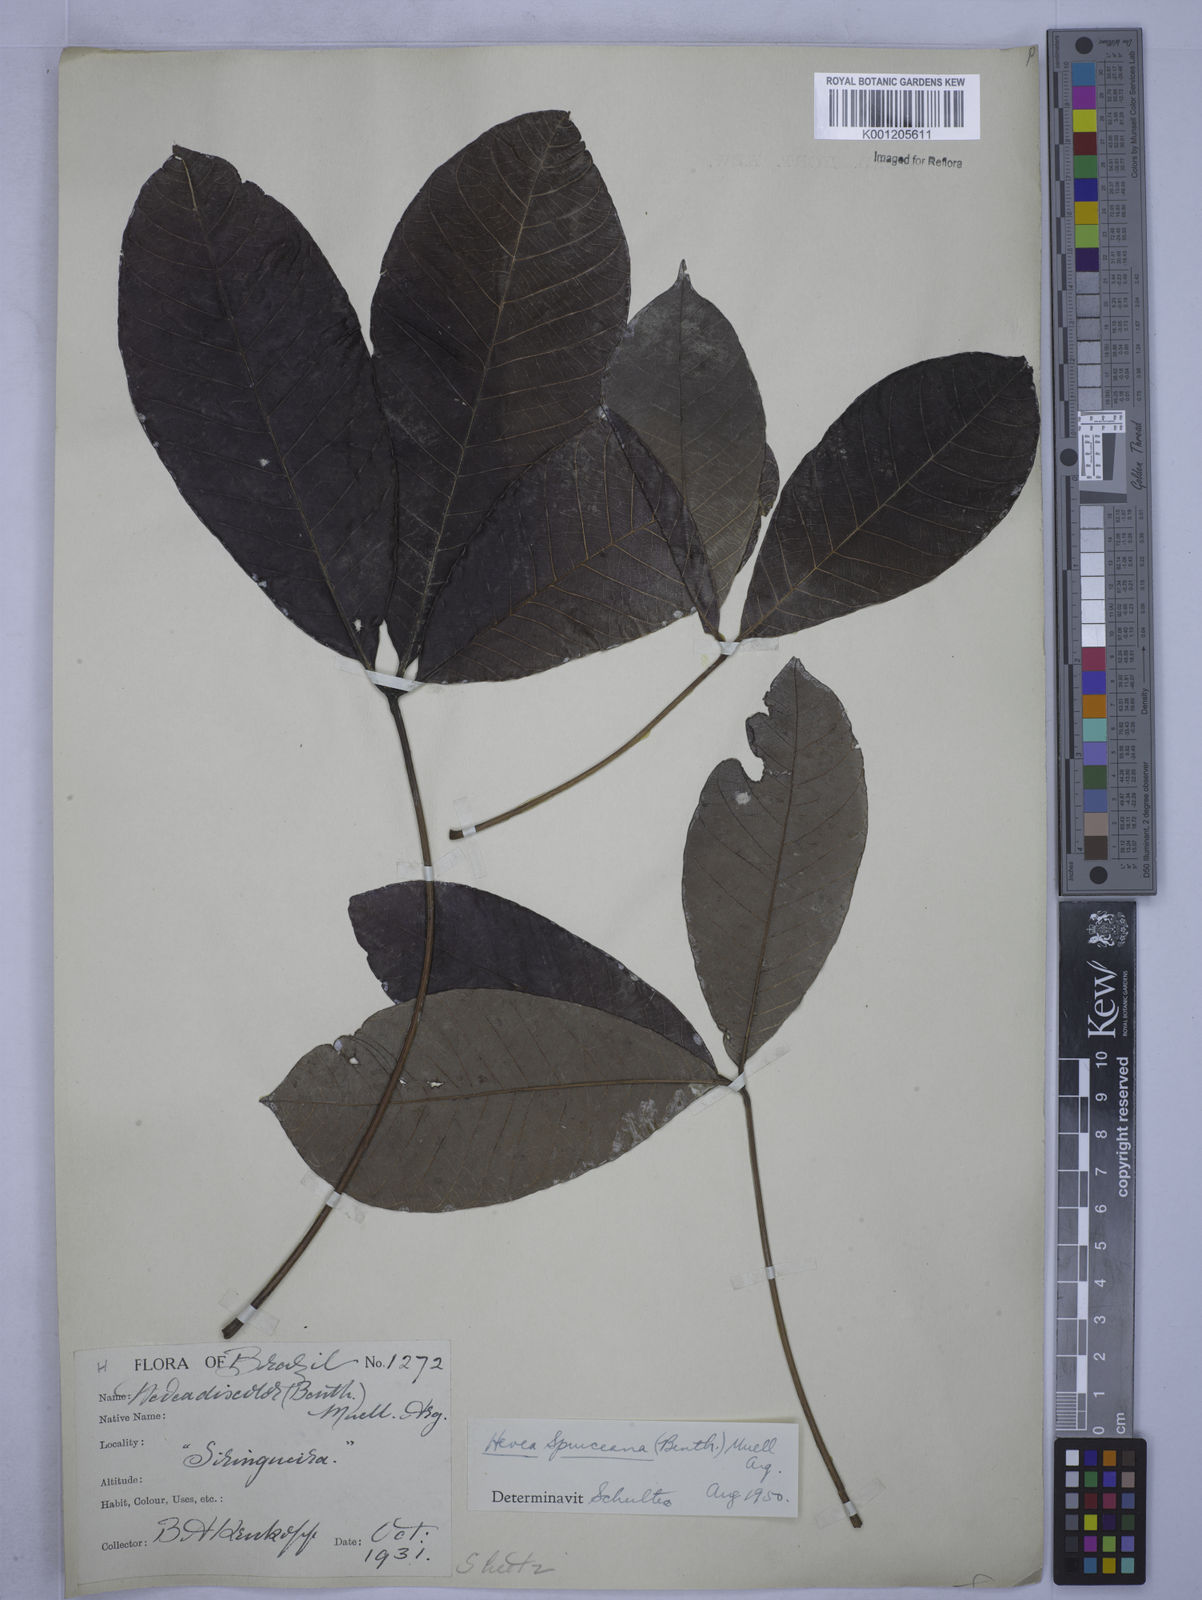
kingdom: Plantae
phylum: Tracheophyta
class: Magnoliopsida
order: Malpighiales
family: Euphorbiaceae
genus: Hevea
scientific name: Hevea
